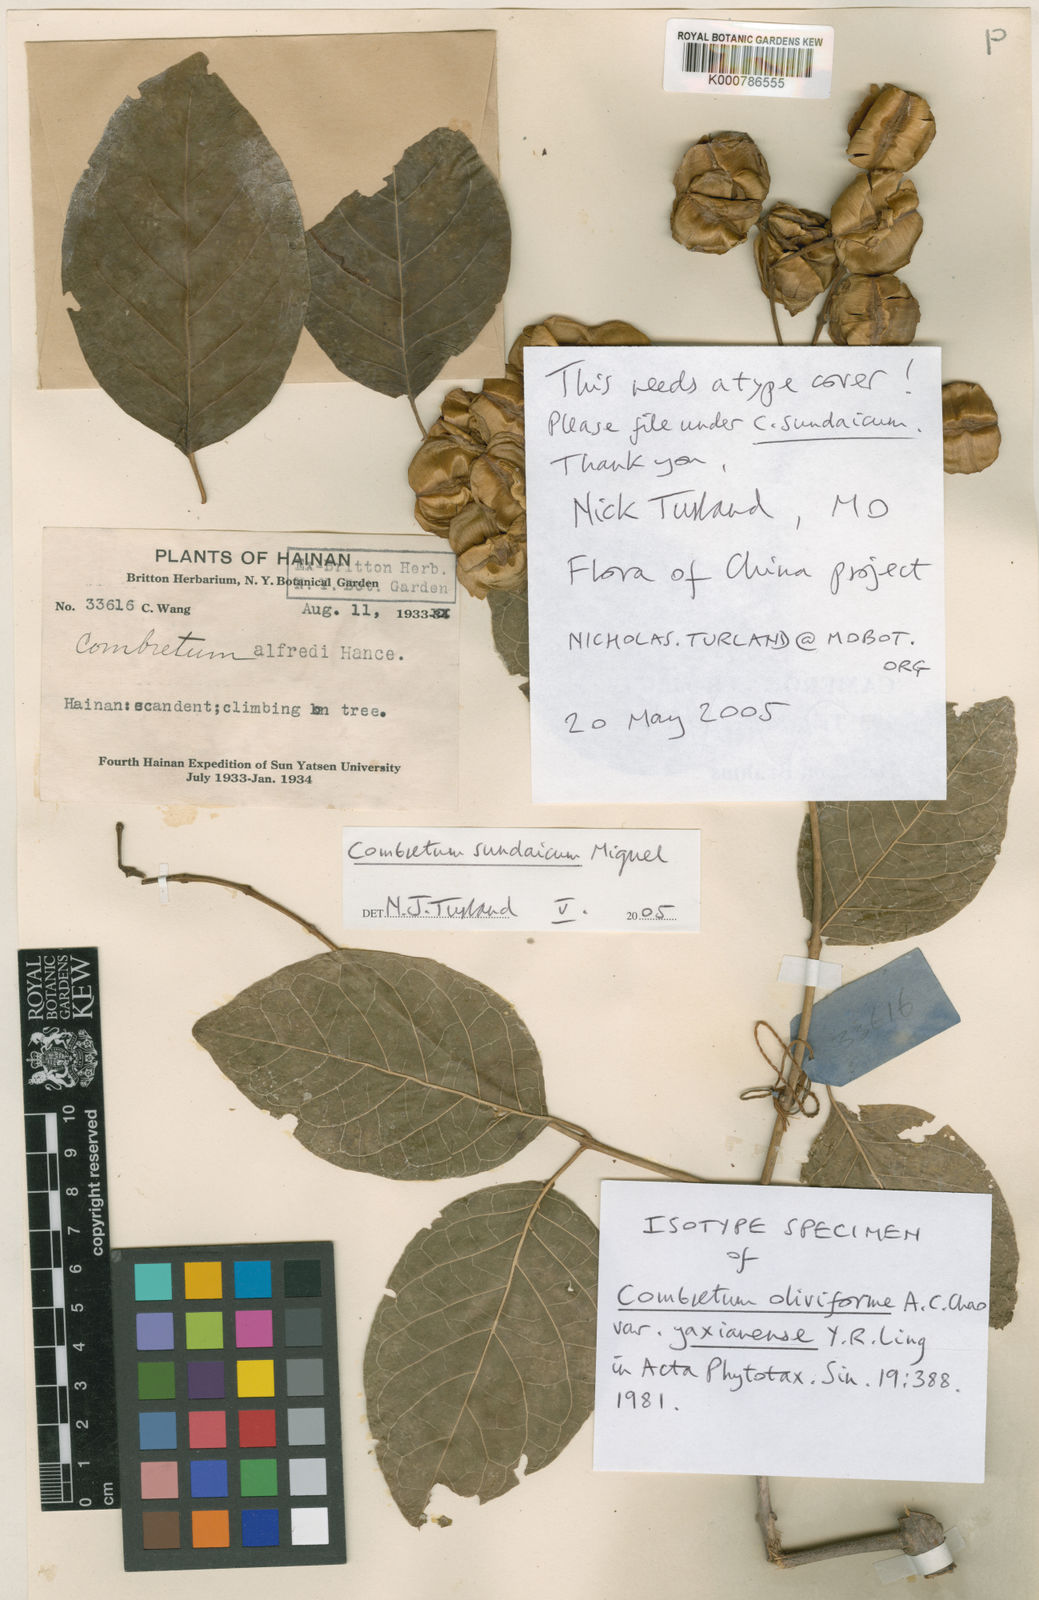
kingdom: Plantae
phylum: Tracheophyta
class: Magnoliopsida
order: Myrtales
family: Combretaceae
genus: Combretum
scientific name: Combretum sundaicum
